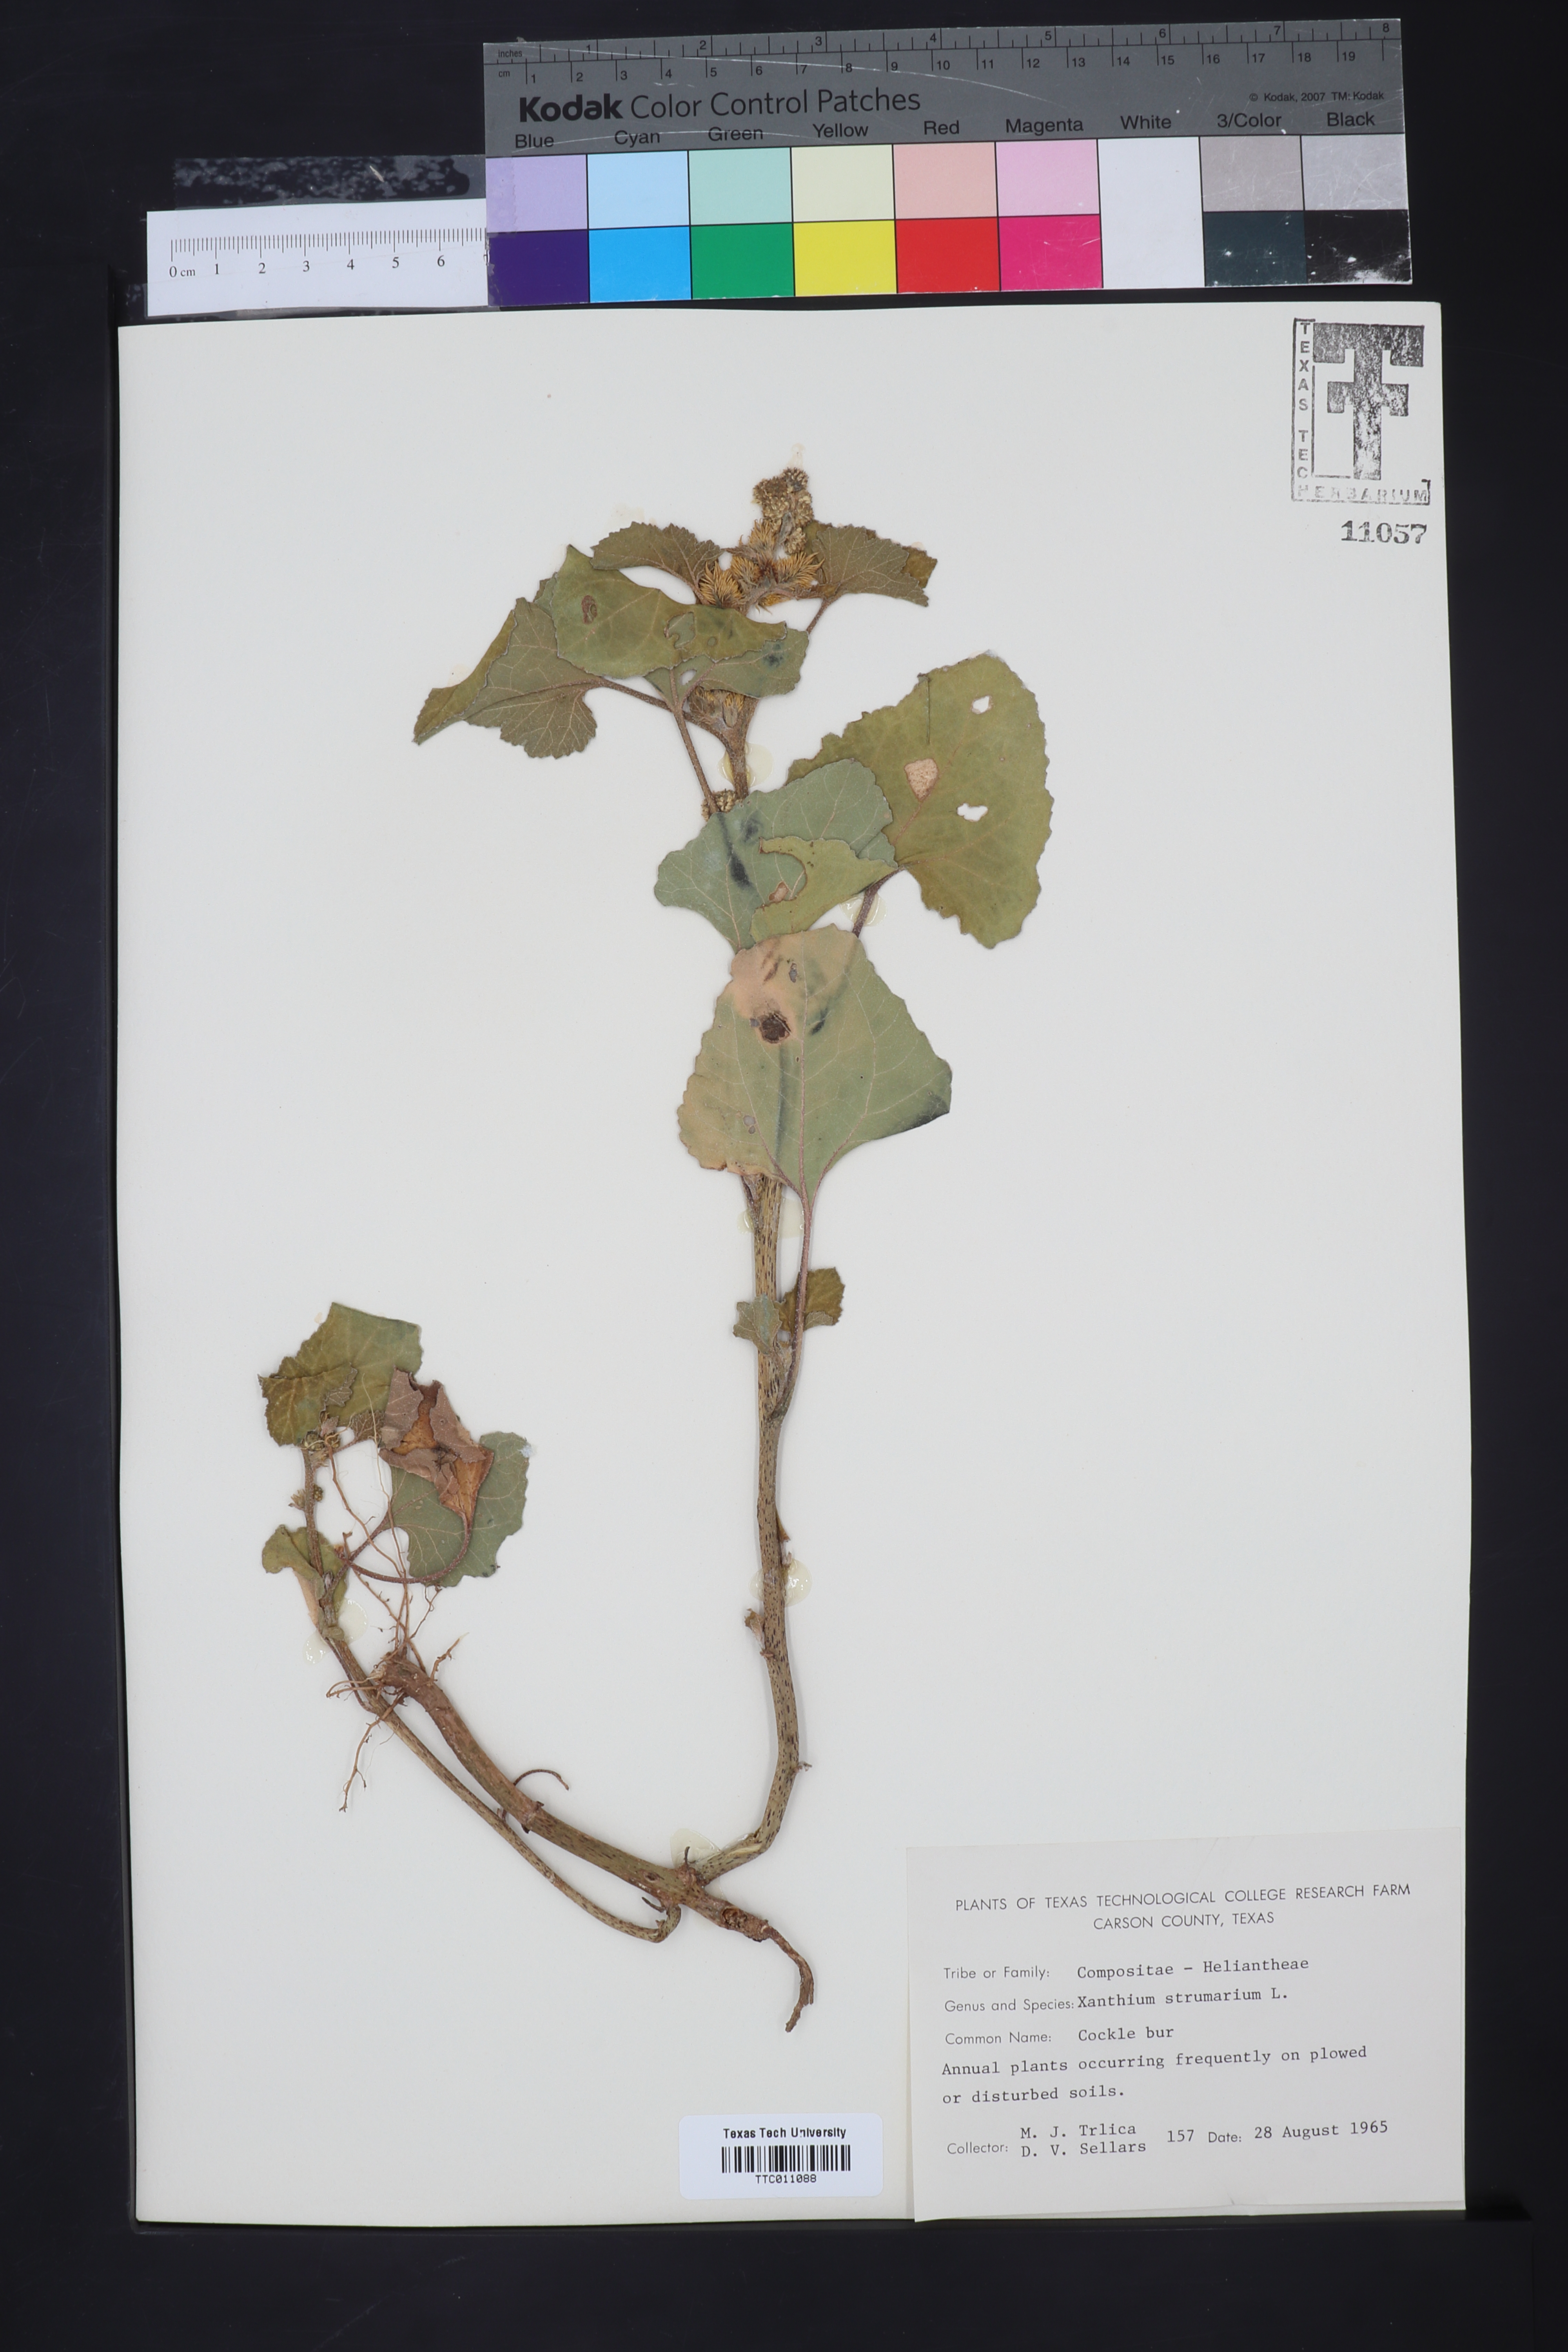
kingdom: Plantae
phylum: Tracheophyta
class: Magnoliopsida
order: Asterales
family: Asteraceae
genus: Xanthium
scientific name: Xanthium strumarium
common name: Rough cocklebur
